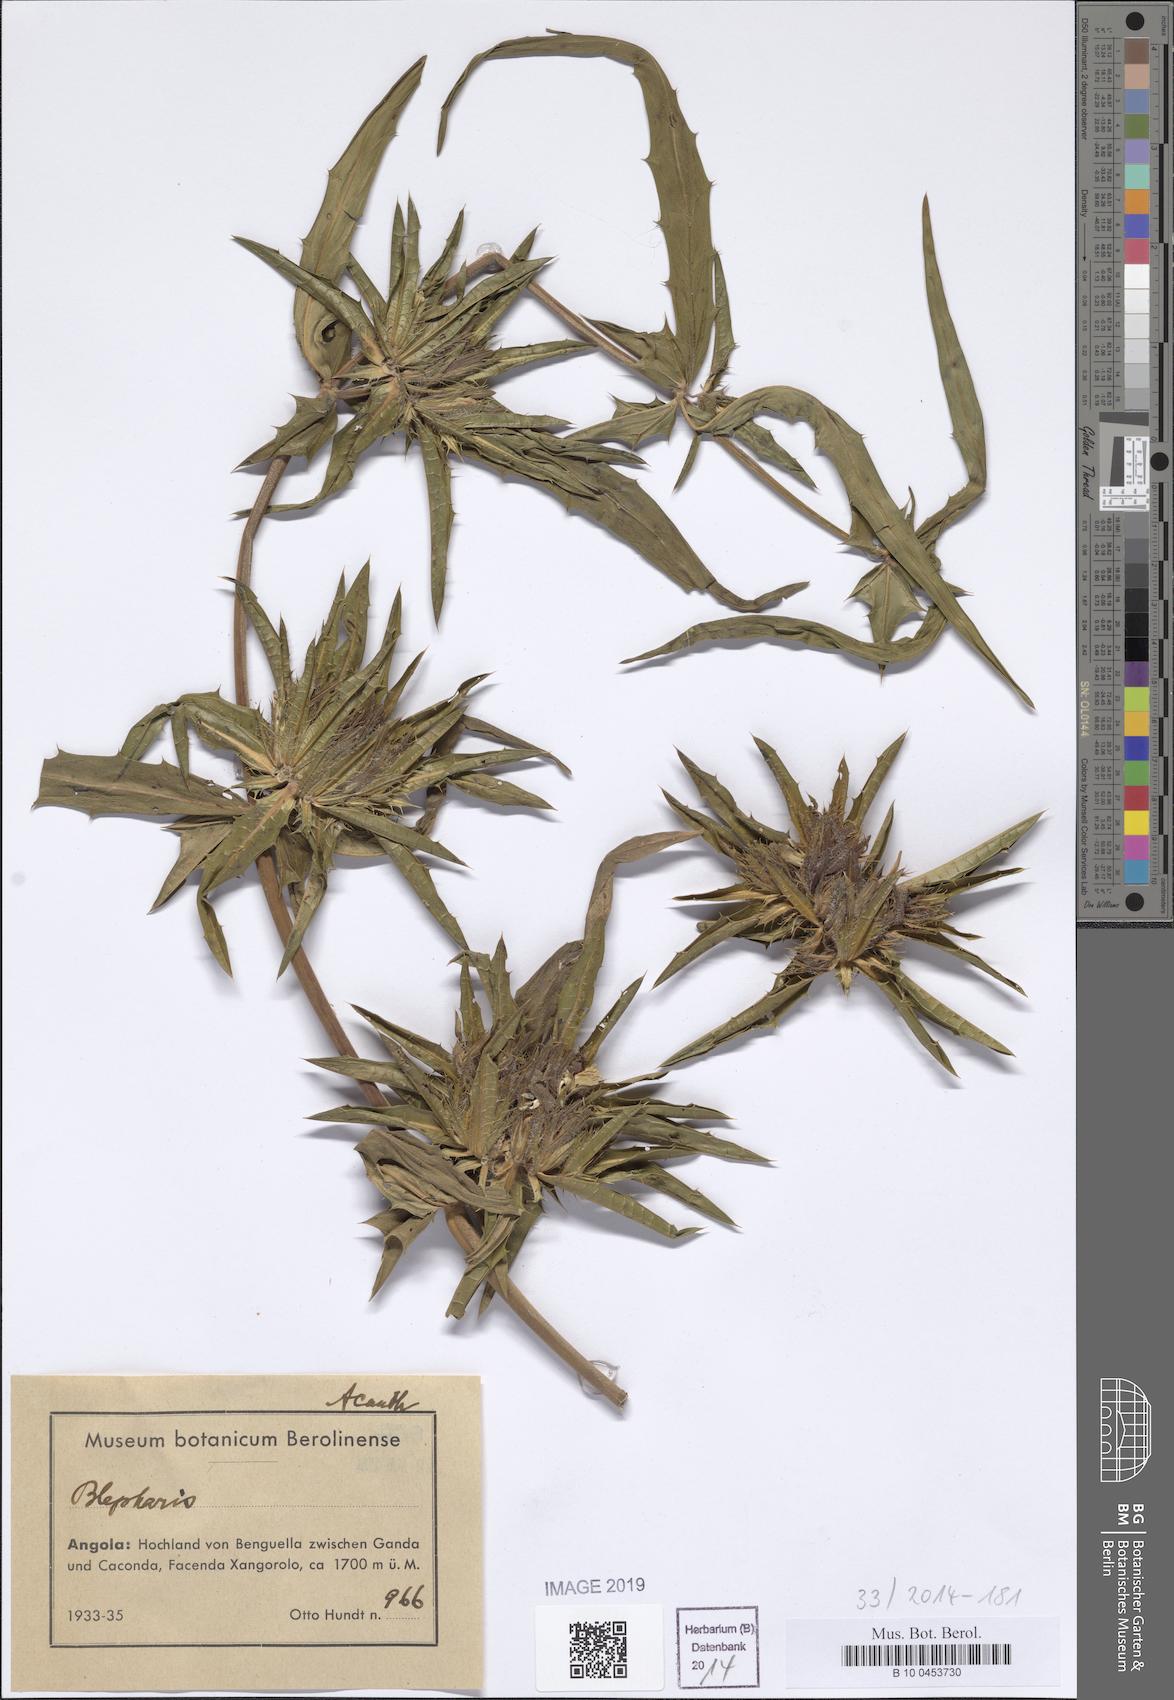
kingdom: Plantae
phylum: Tracheophyta
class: Magnoliopsida
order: Lamiales
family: Acanthaceae
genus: Blepharis
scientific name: Blepharis
